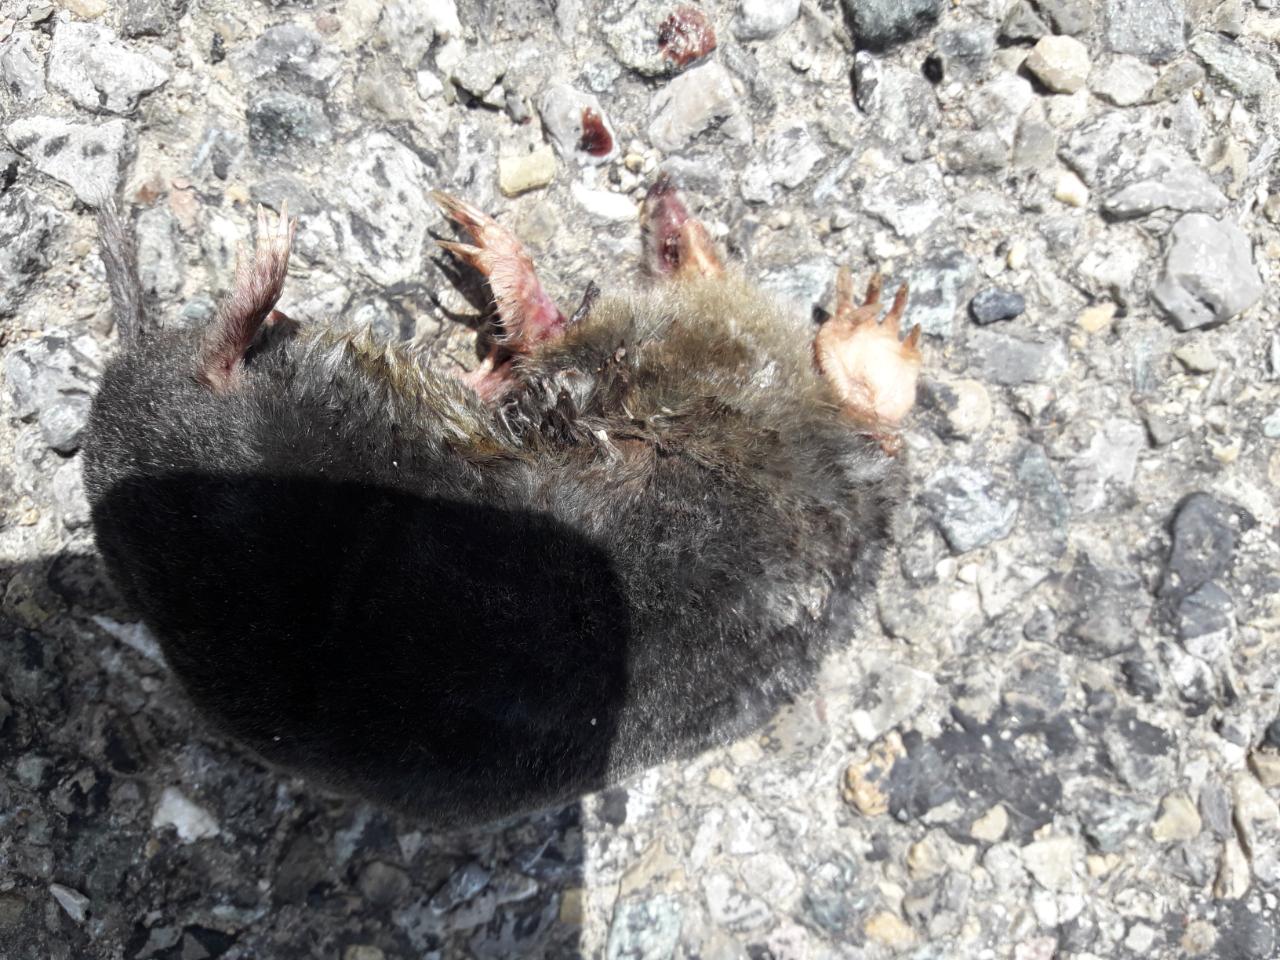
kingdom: Animalia
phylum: Chordata
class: Mammalia
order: Soricomorpha
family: Talpidae
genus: Talpa
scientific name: Talpa europaea
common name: European mole
